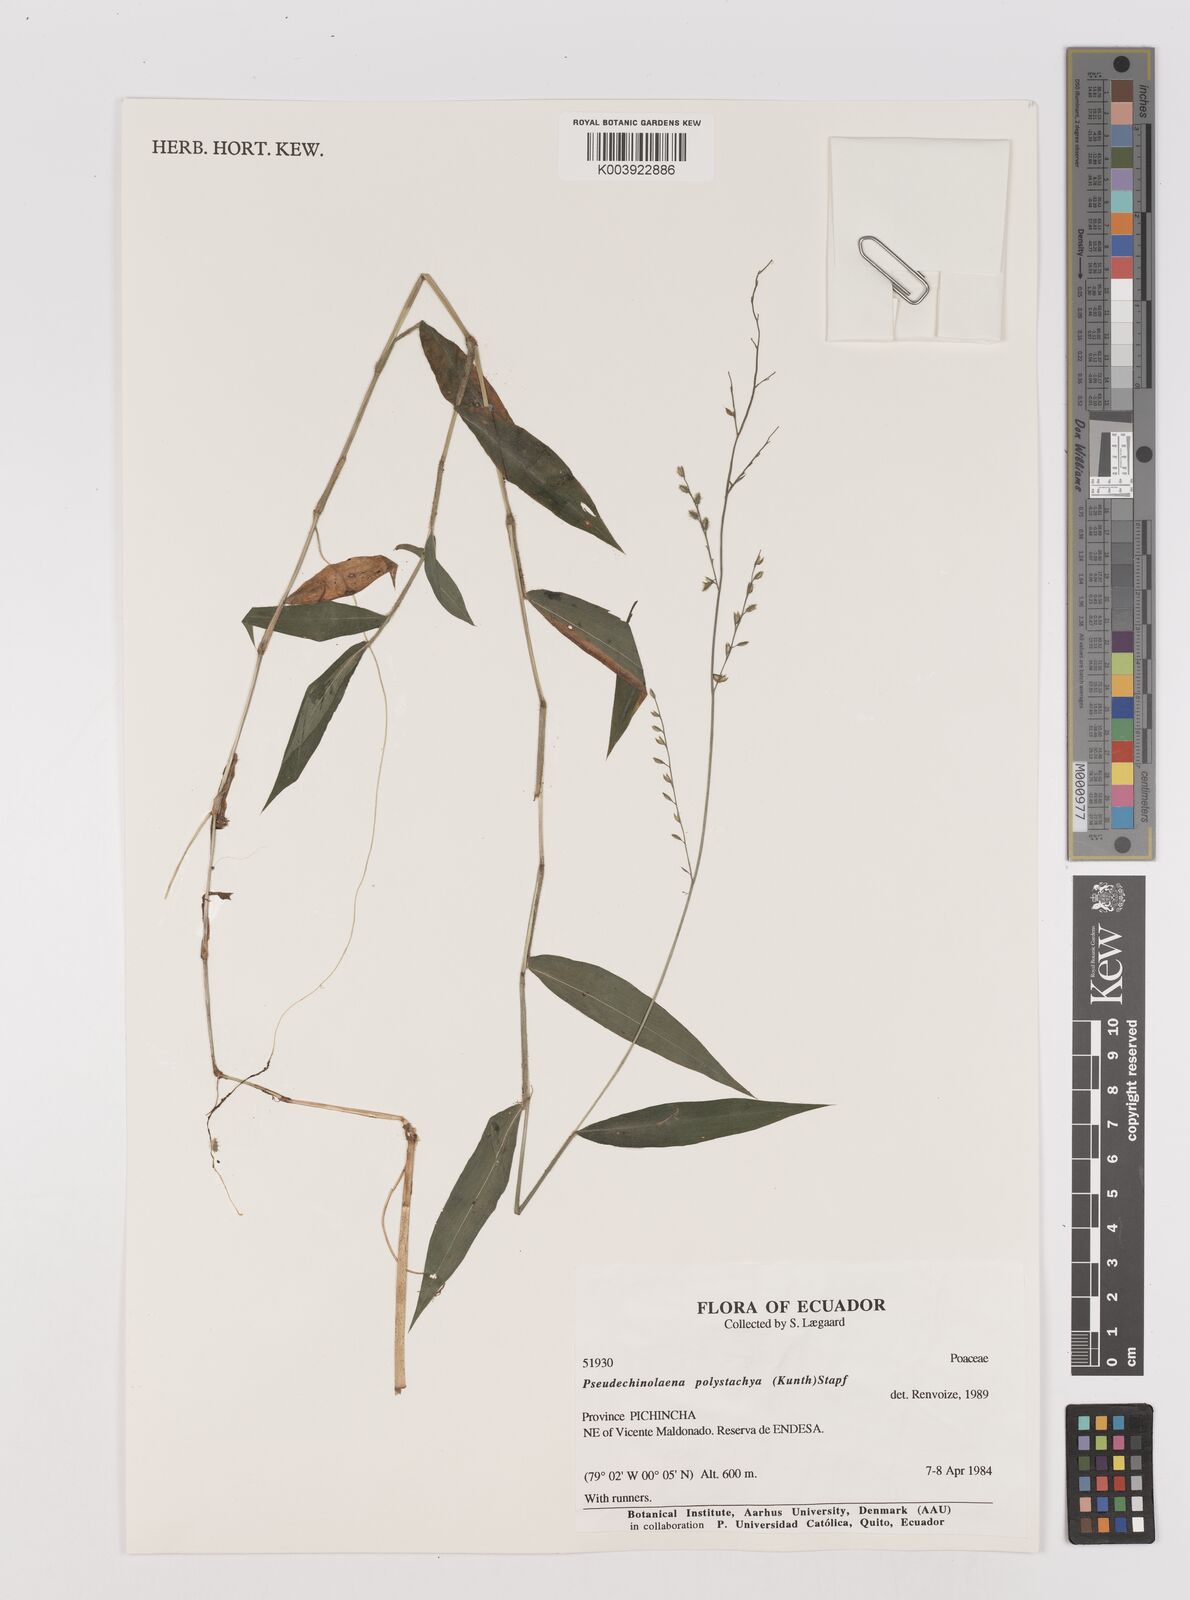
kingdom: Plantae
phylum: Tracheophyta
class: Liliopsida
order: Poales
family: Poaceae
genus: Pseudechinolaena
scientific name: Pseudechinolaena polystachya
